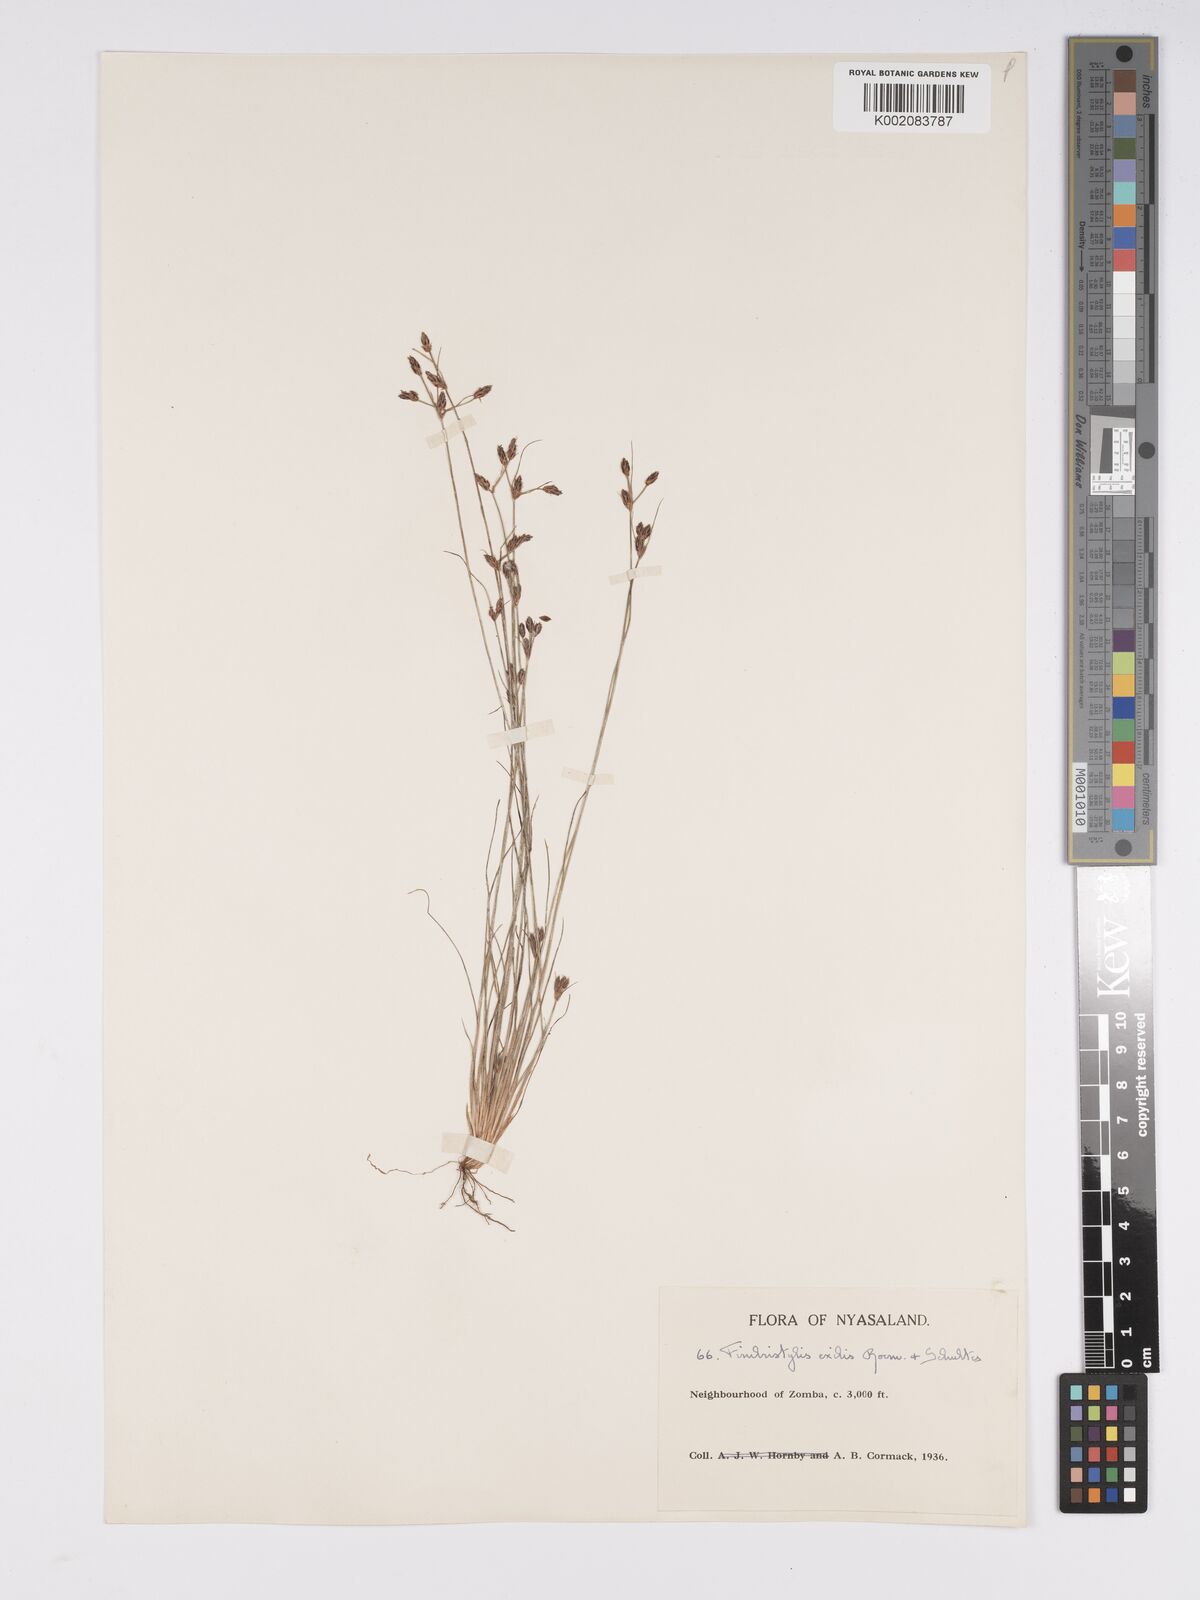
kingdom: Plantae
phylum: Tracheophyta
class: Liliopsida
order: Poales
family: Cyperaceae
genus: Bulbostylis
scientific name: Bulbostylis hispidula
